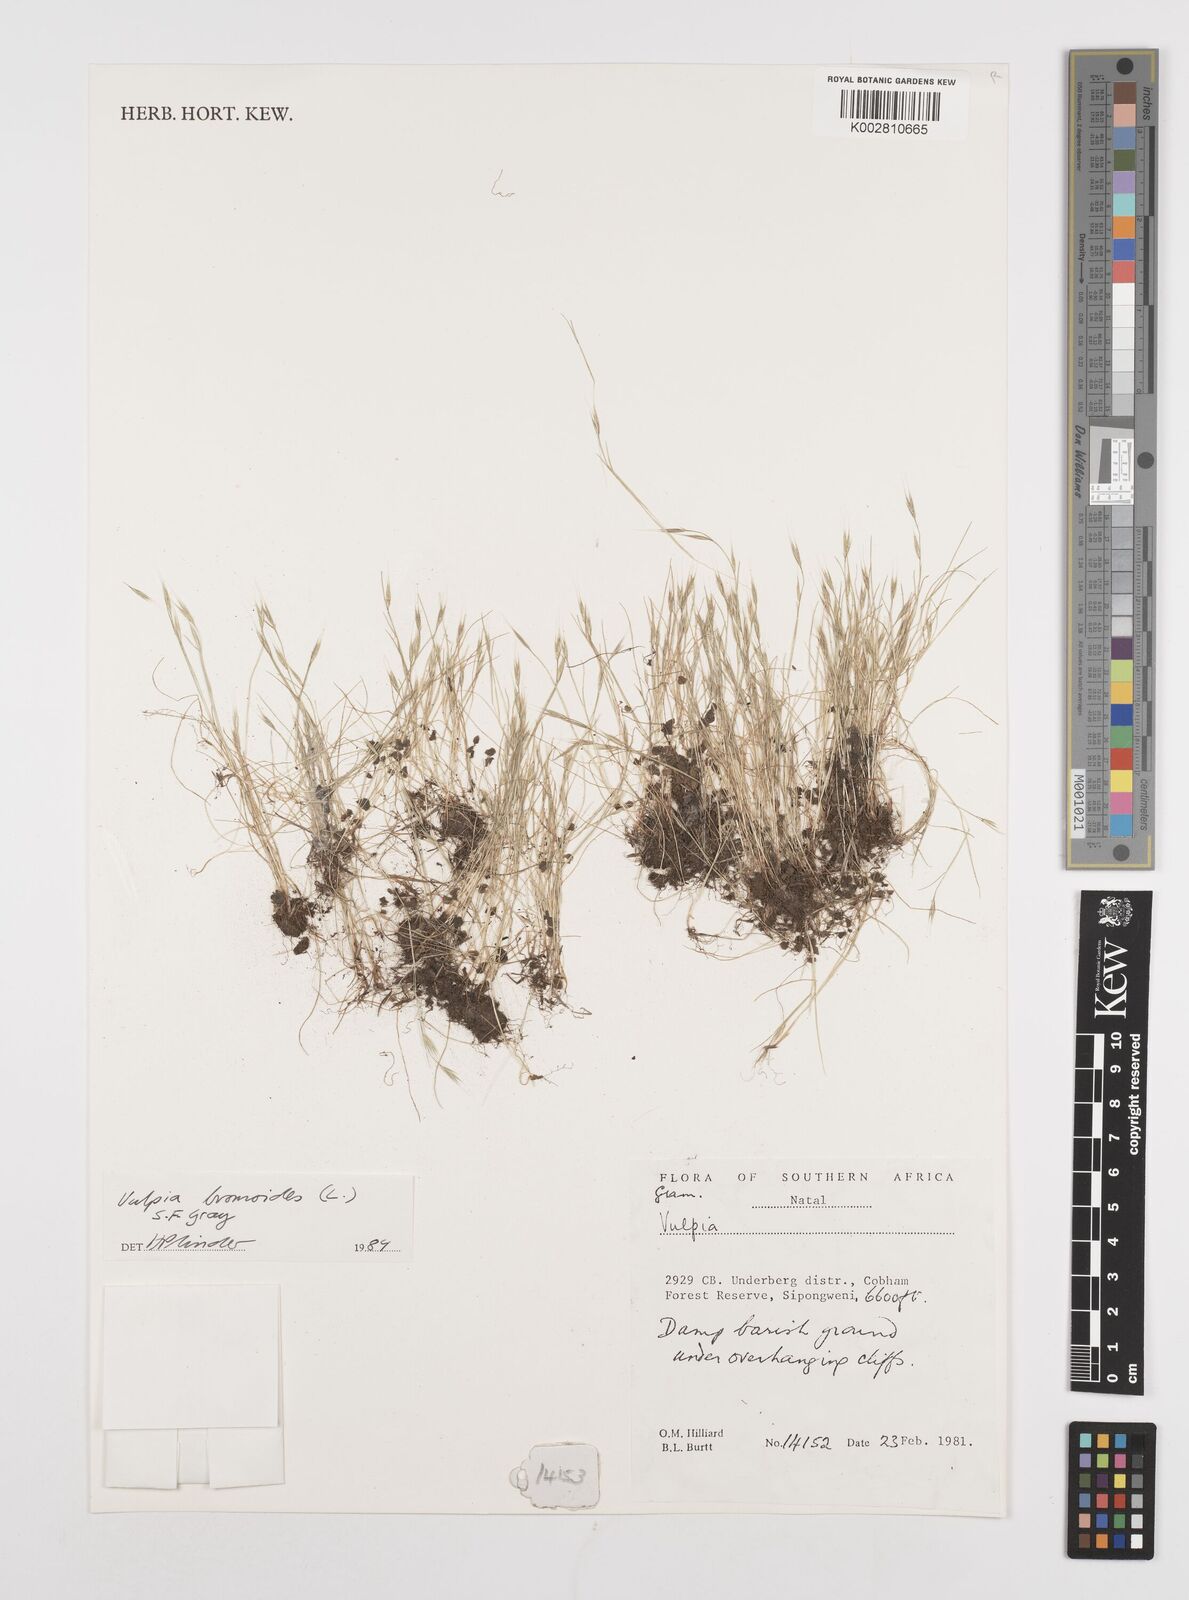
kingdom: Plantae
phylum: Tracheophyta
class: Liliopsida
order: Poales
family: Poaceae
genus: Festuca
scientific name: Festuca bromoides
